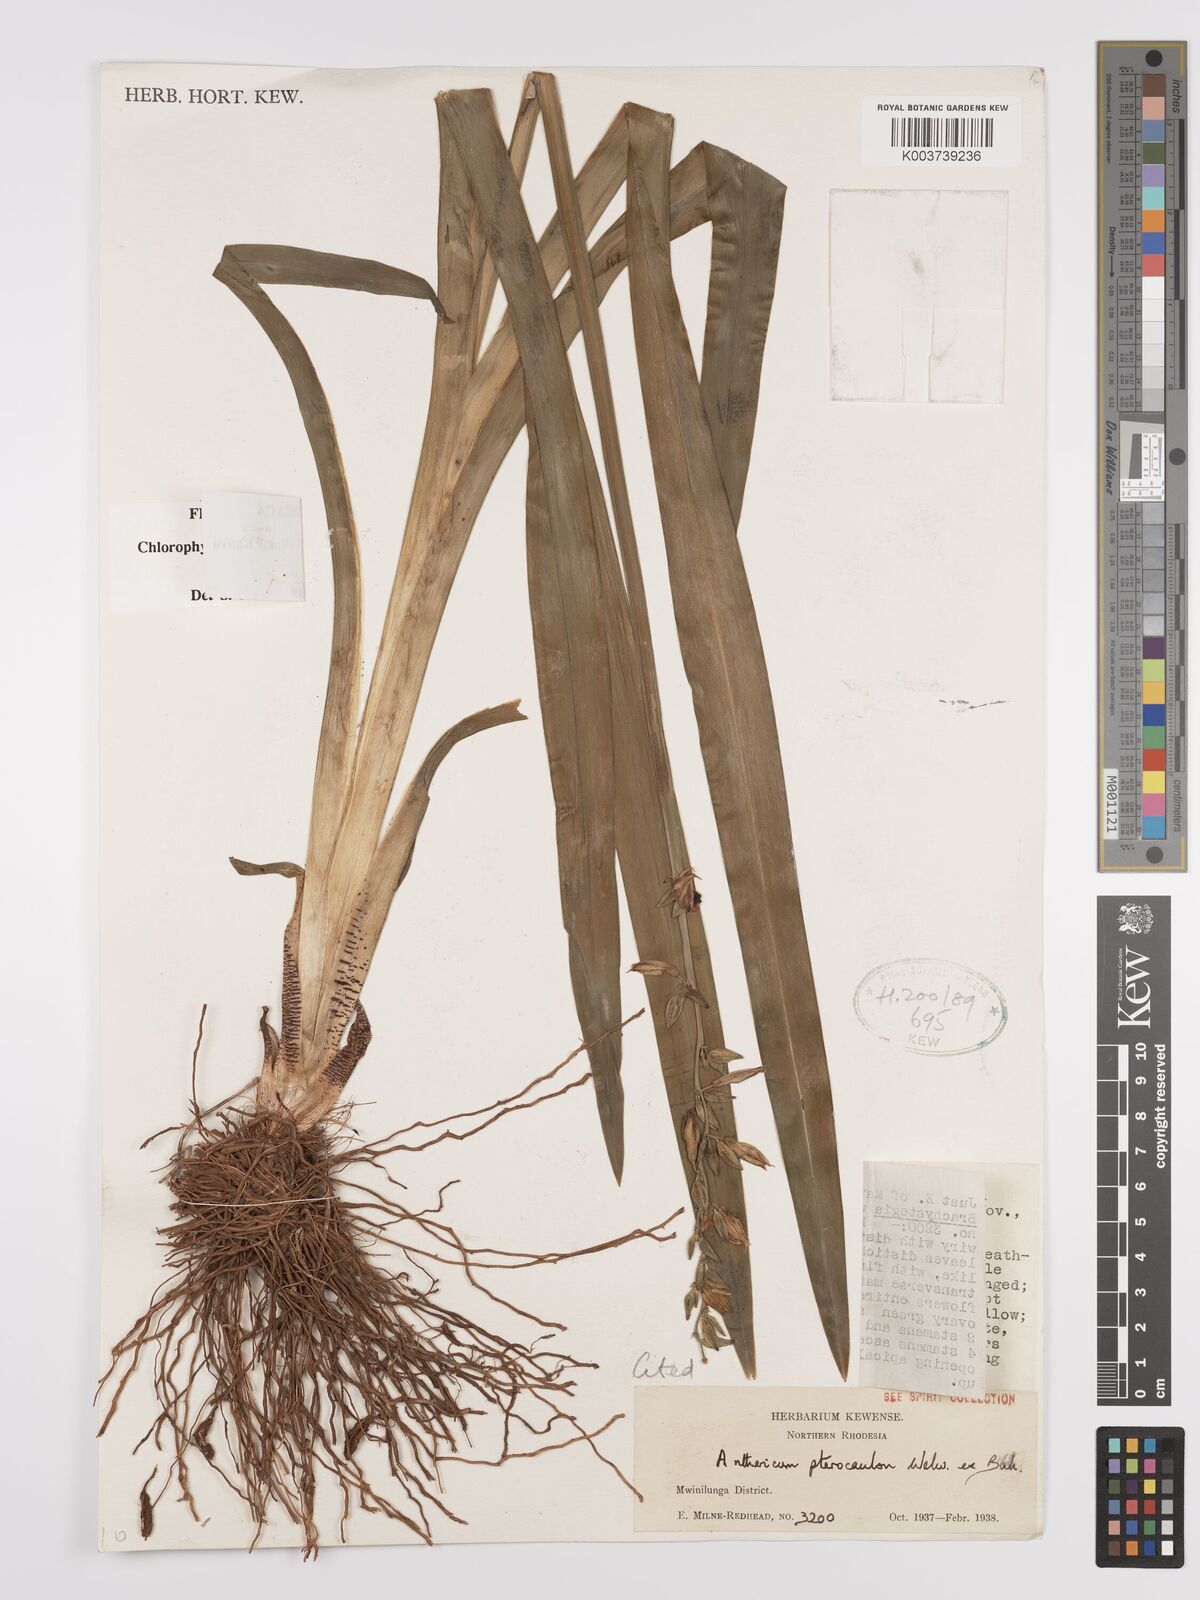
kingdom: Plantae
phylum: Tracheophyta
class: Liliopsida
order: Asparagales
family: Asparagaceae
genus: Chlorophytum
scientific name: Chlorophytum cameronii
